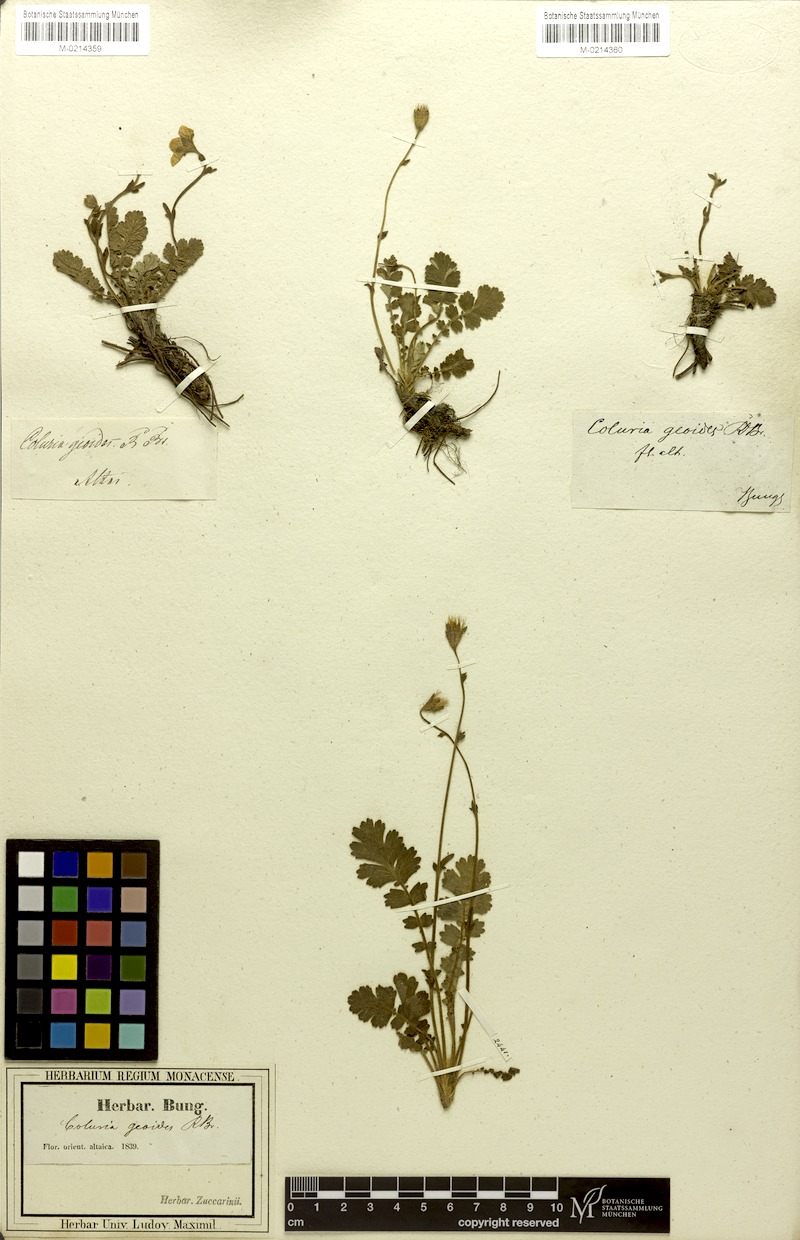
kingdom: Plantae
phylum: Tracheophyta
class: Magnoliopsida
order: Rosales
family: Rosaceae
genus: Geum
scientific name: Geum geoides
